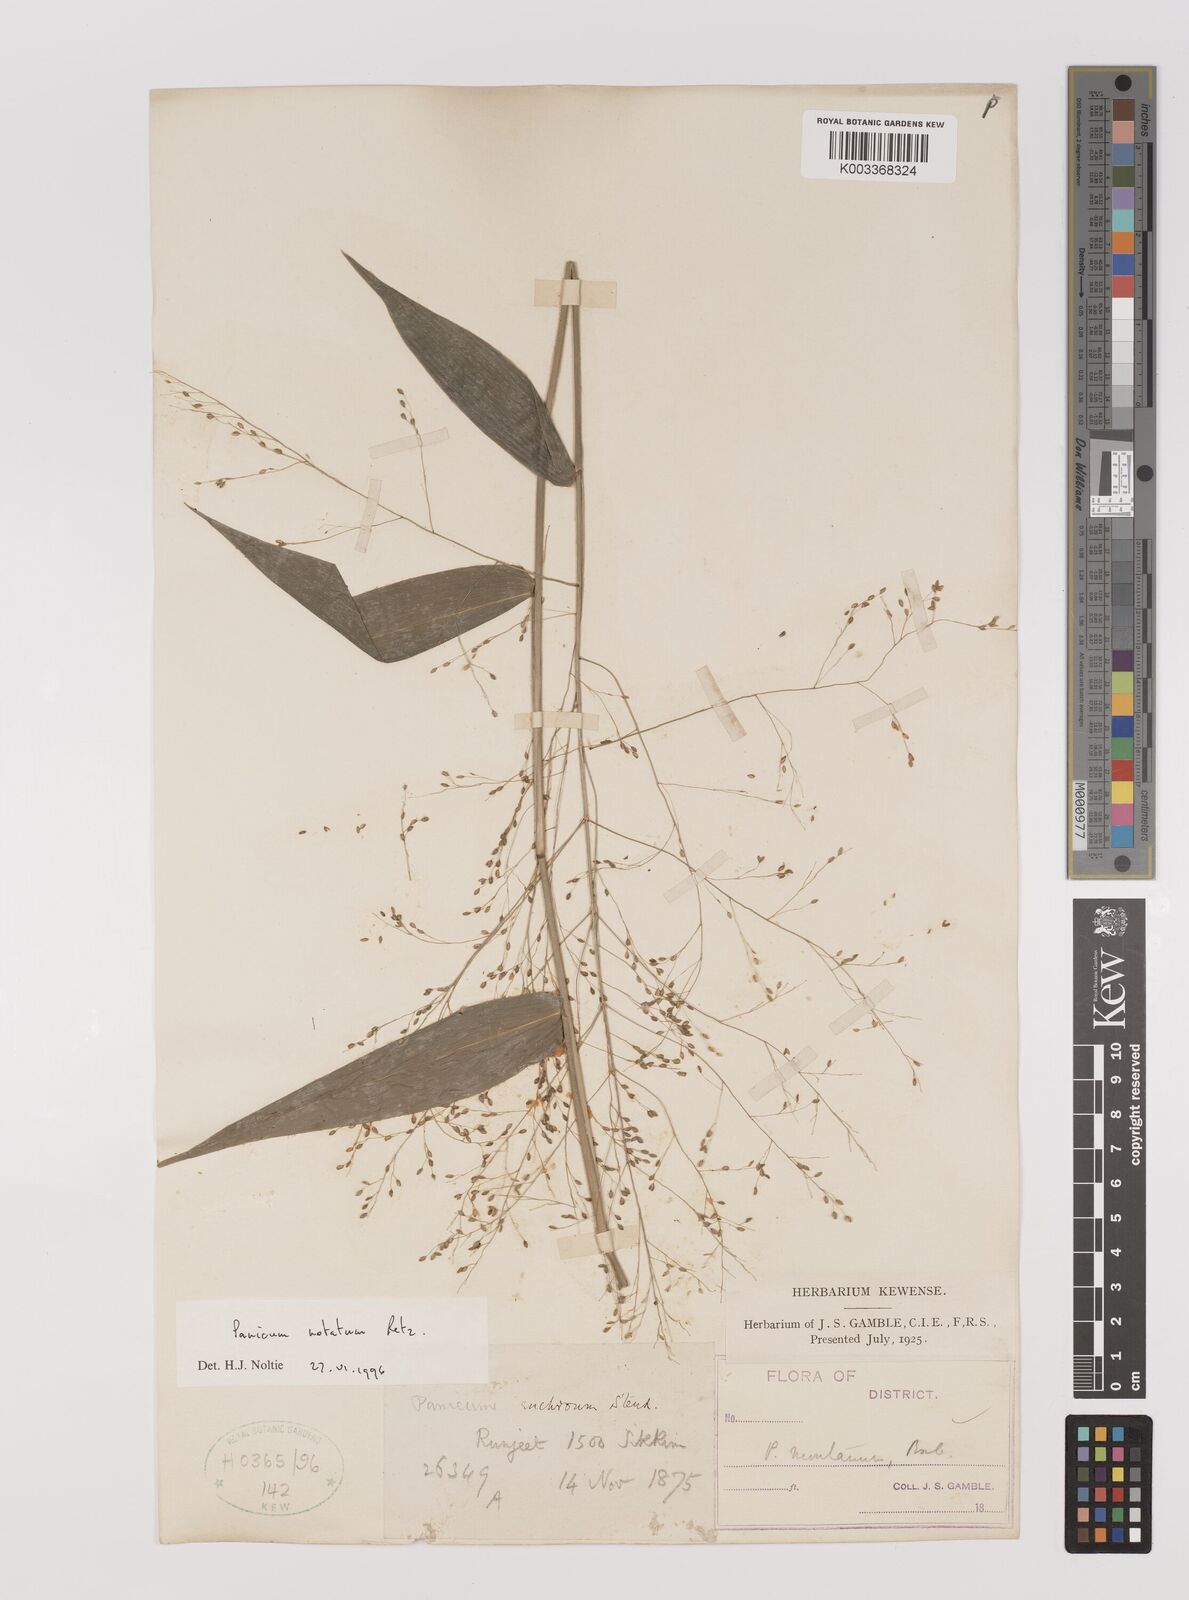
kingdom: Plantae
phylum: Tracheophyta
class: Liliopsida
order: Poales
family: Poaceae
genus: Panicum
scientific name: Panicum notatum
